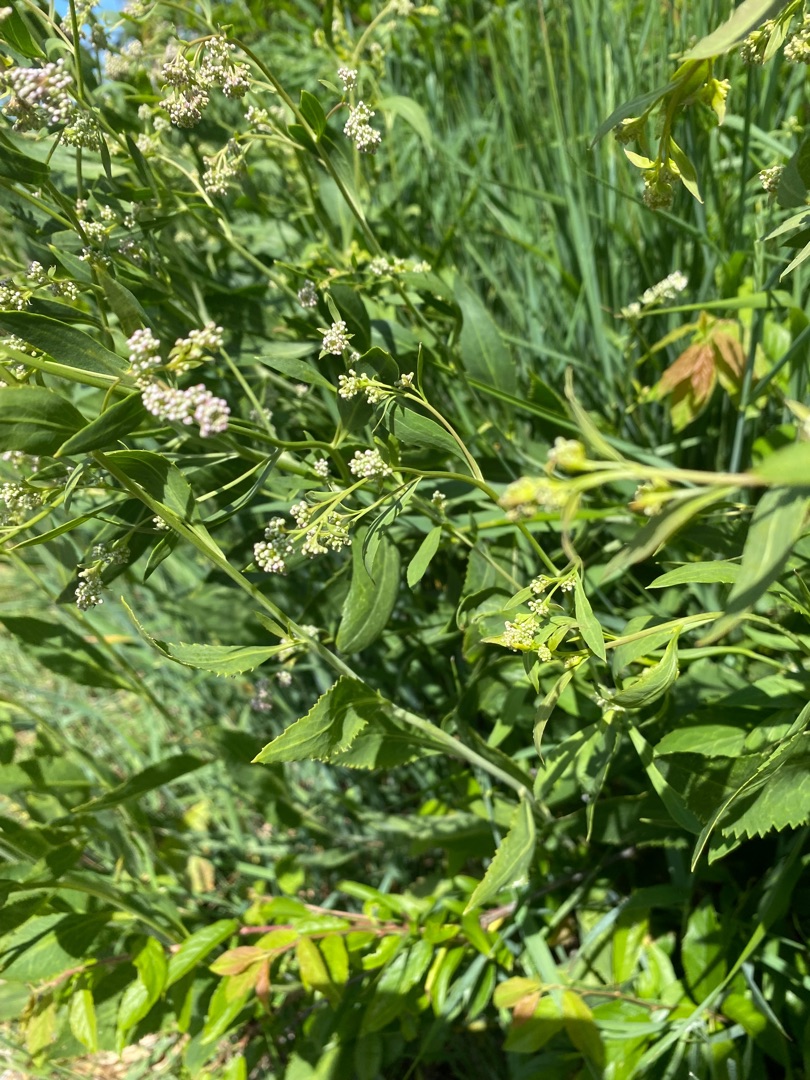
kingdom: Plantae
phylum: Tracheophyta
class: Magnoliopsida
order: Brassicales
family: Brassicaceae
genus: Lepidium
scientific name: Lepidium latifolium
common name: Strand-karse
